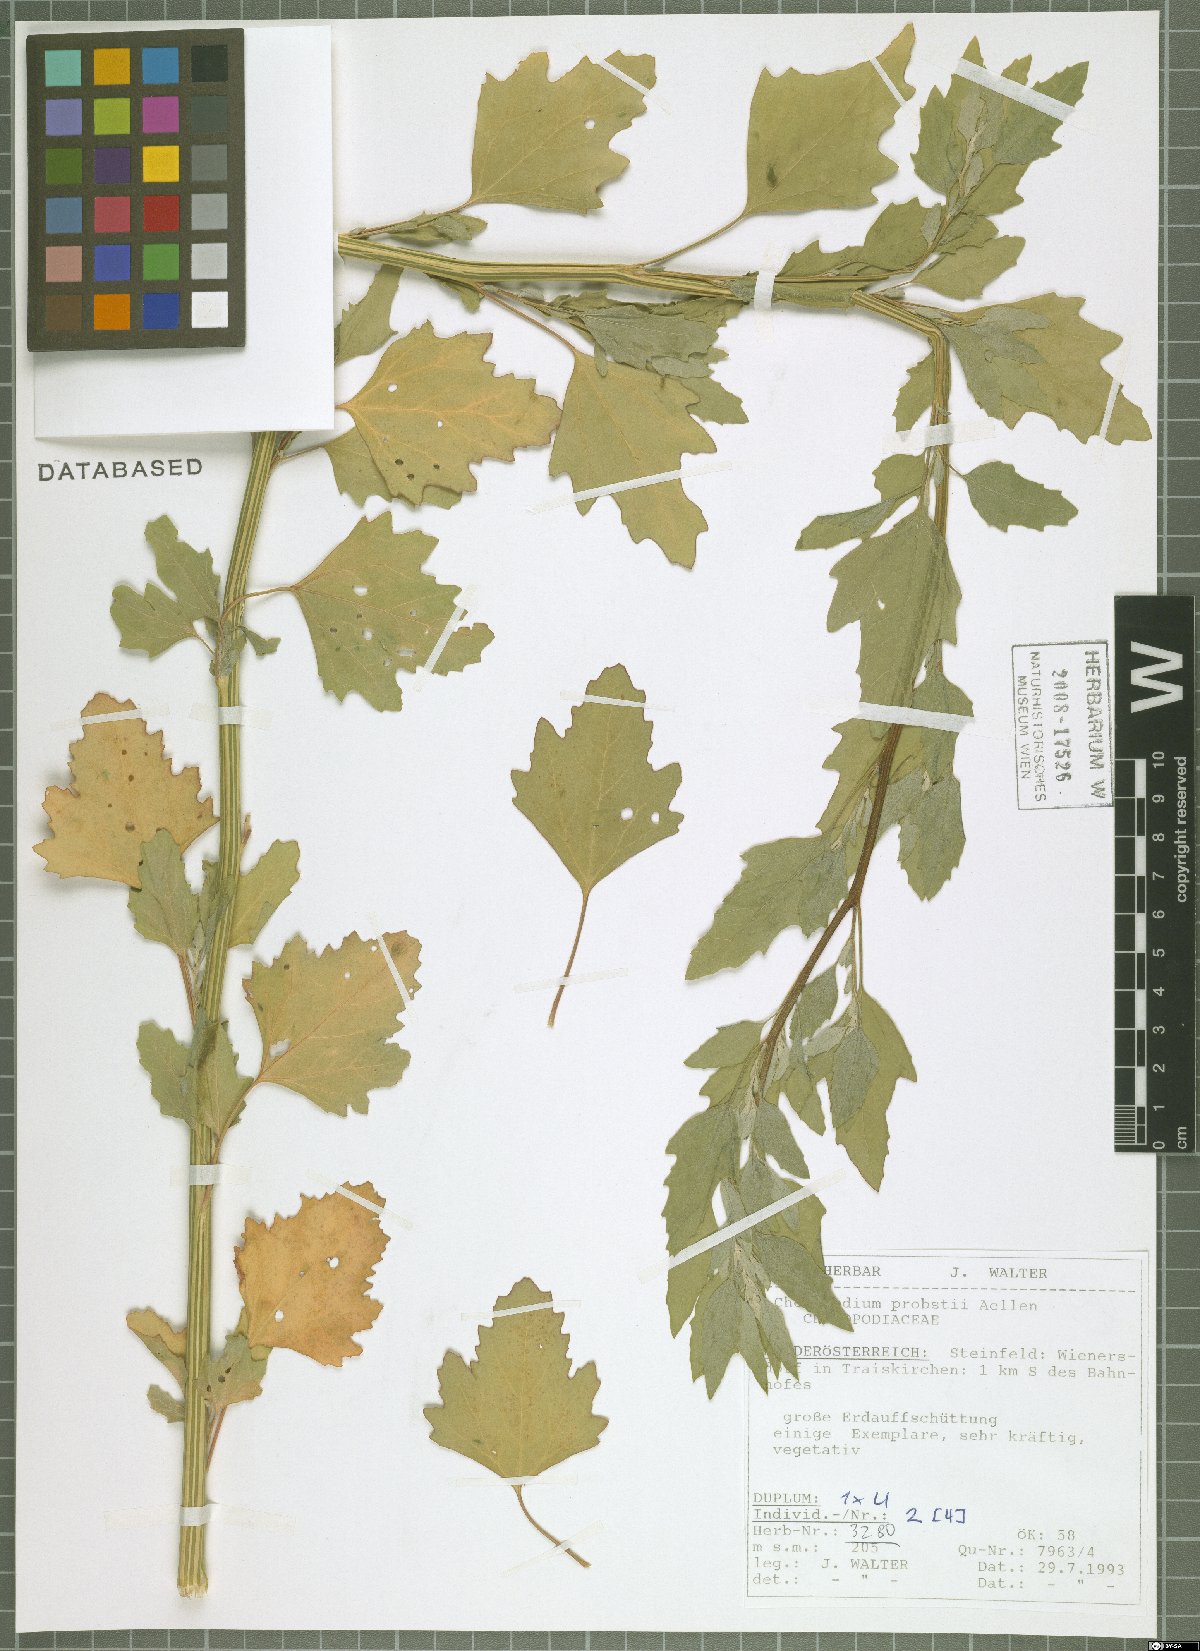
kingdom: Plantae
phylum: Tracheophyta
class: Magnoliopsida
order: Caryophyllales
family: Amaranthaceae
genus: Chenopodium
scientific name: Chenopodium probstii
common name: Probst's goosefoot
